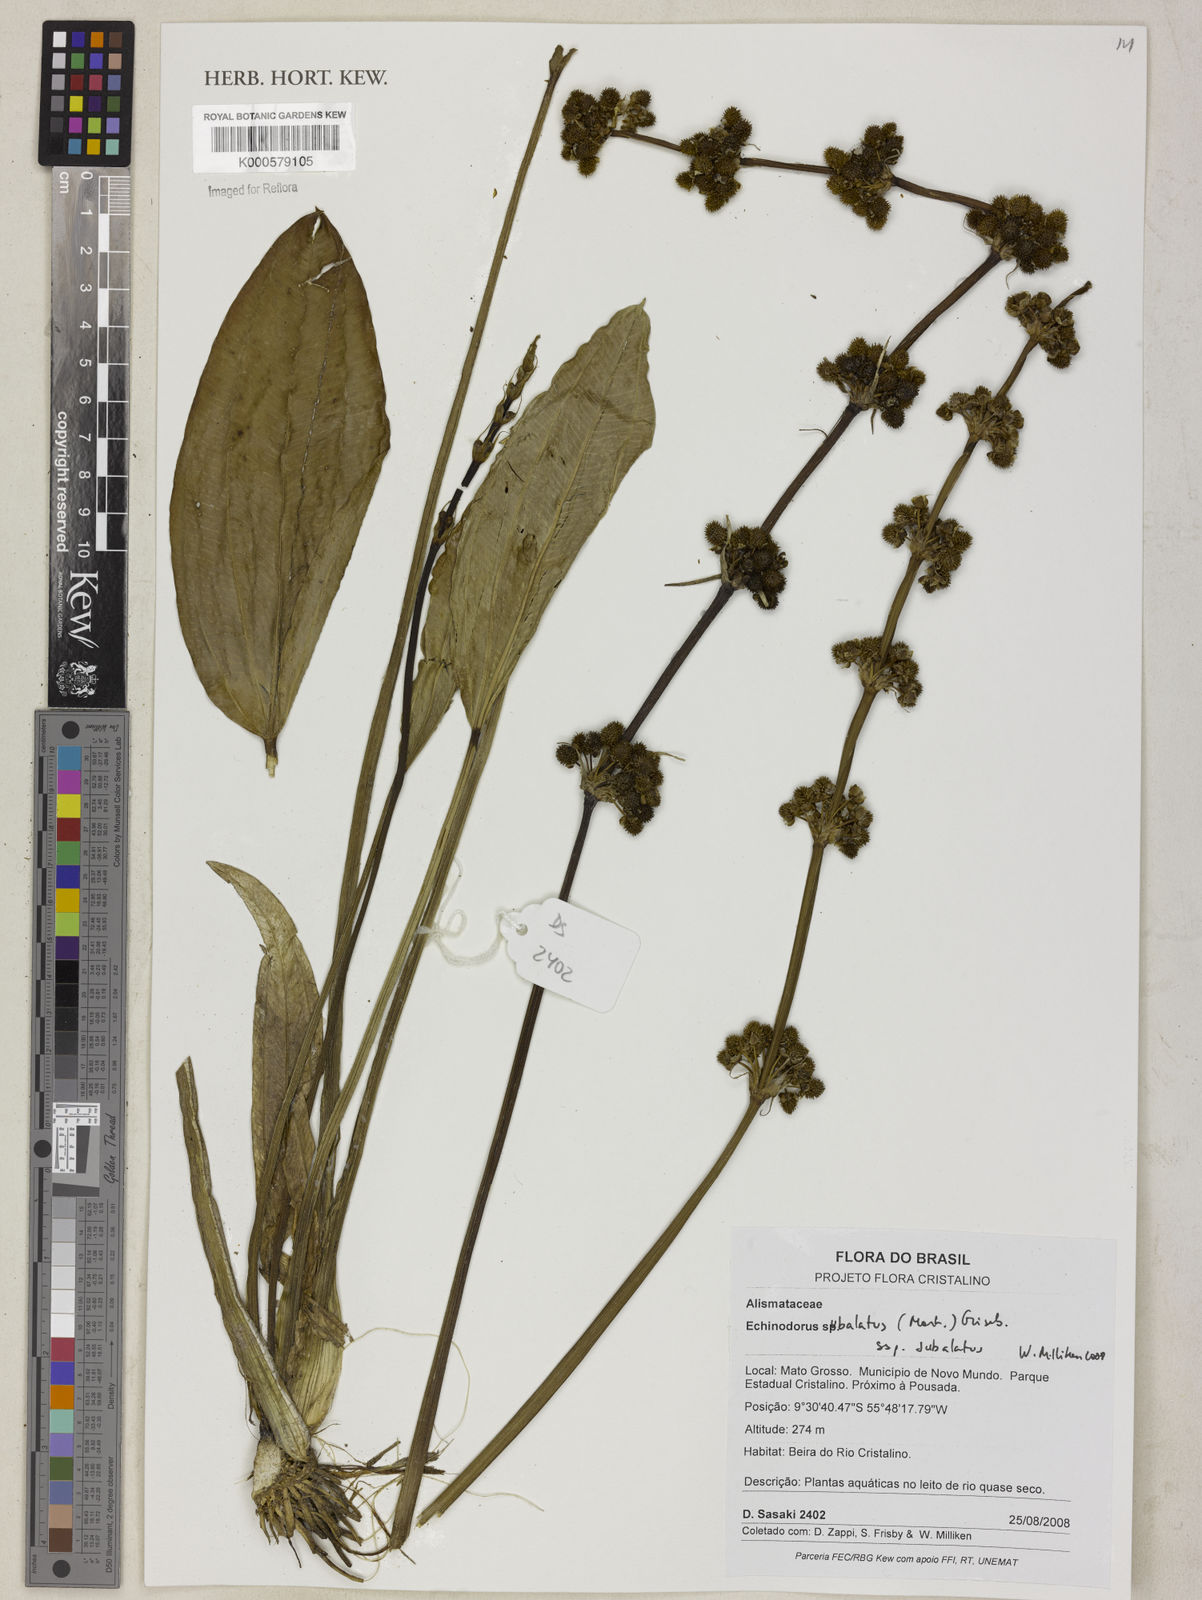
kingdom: Plantae
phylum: Tracheophyta
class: Liliopsida
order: Alismatales
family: Alismataceae
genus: Aquarius
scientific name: Aquarius subulatus
